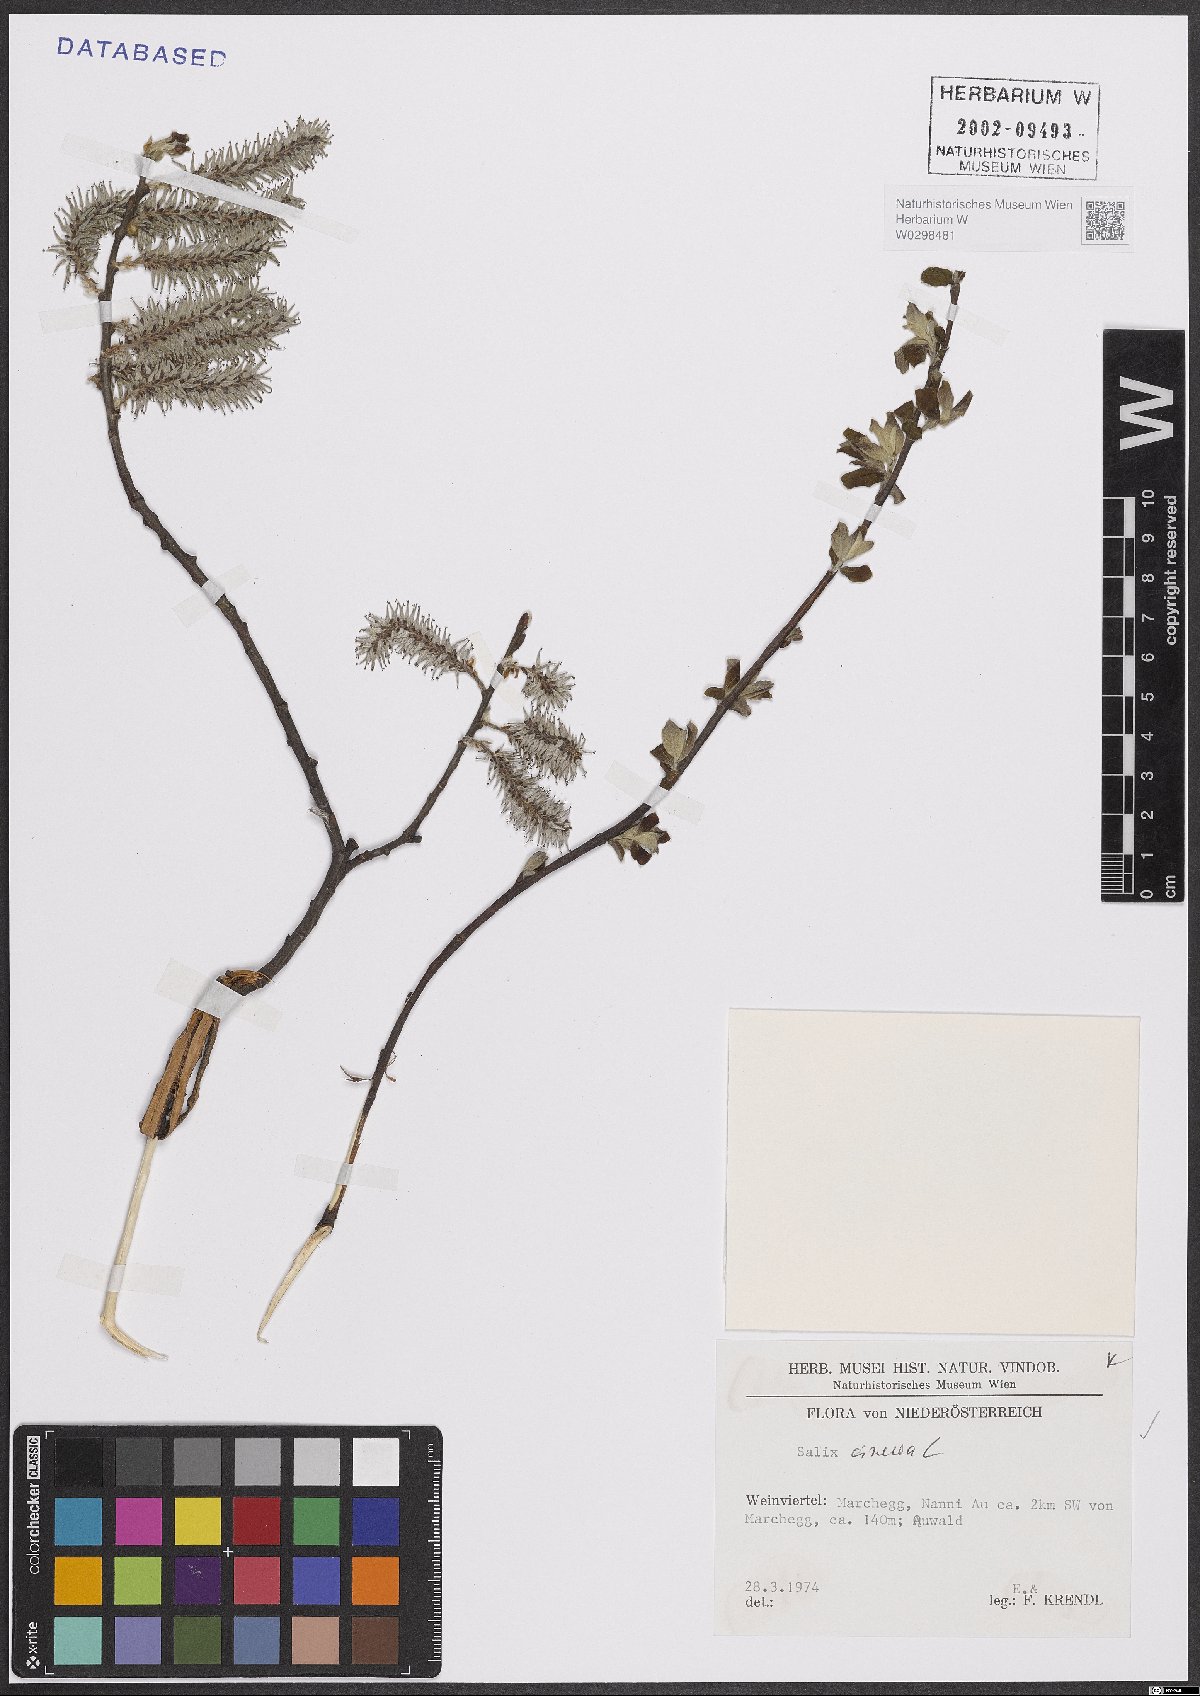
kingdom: Plantae
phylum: Tracheophyta
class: Magnoliopsida
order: Malpighiales
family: Salicaceae
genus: Salix
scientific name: Salix cinerea
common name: Common sallow
